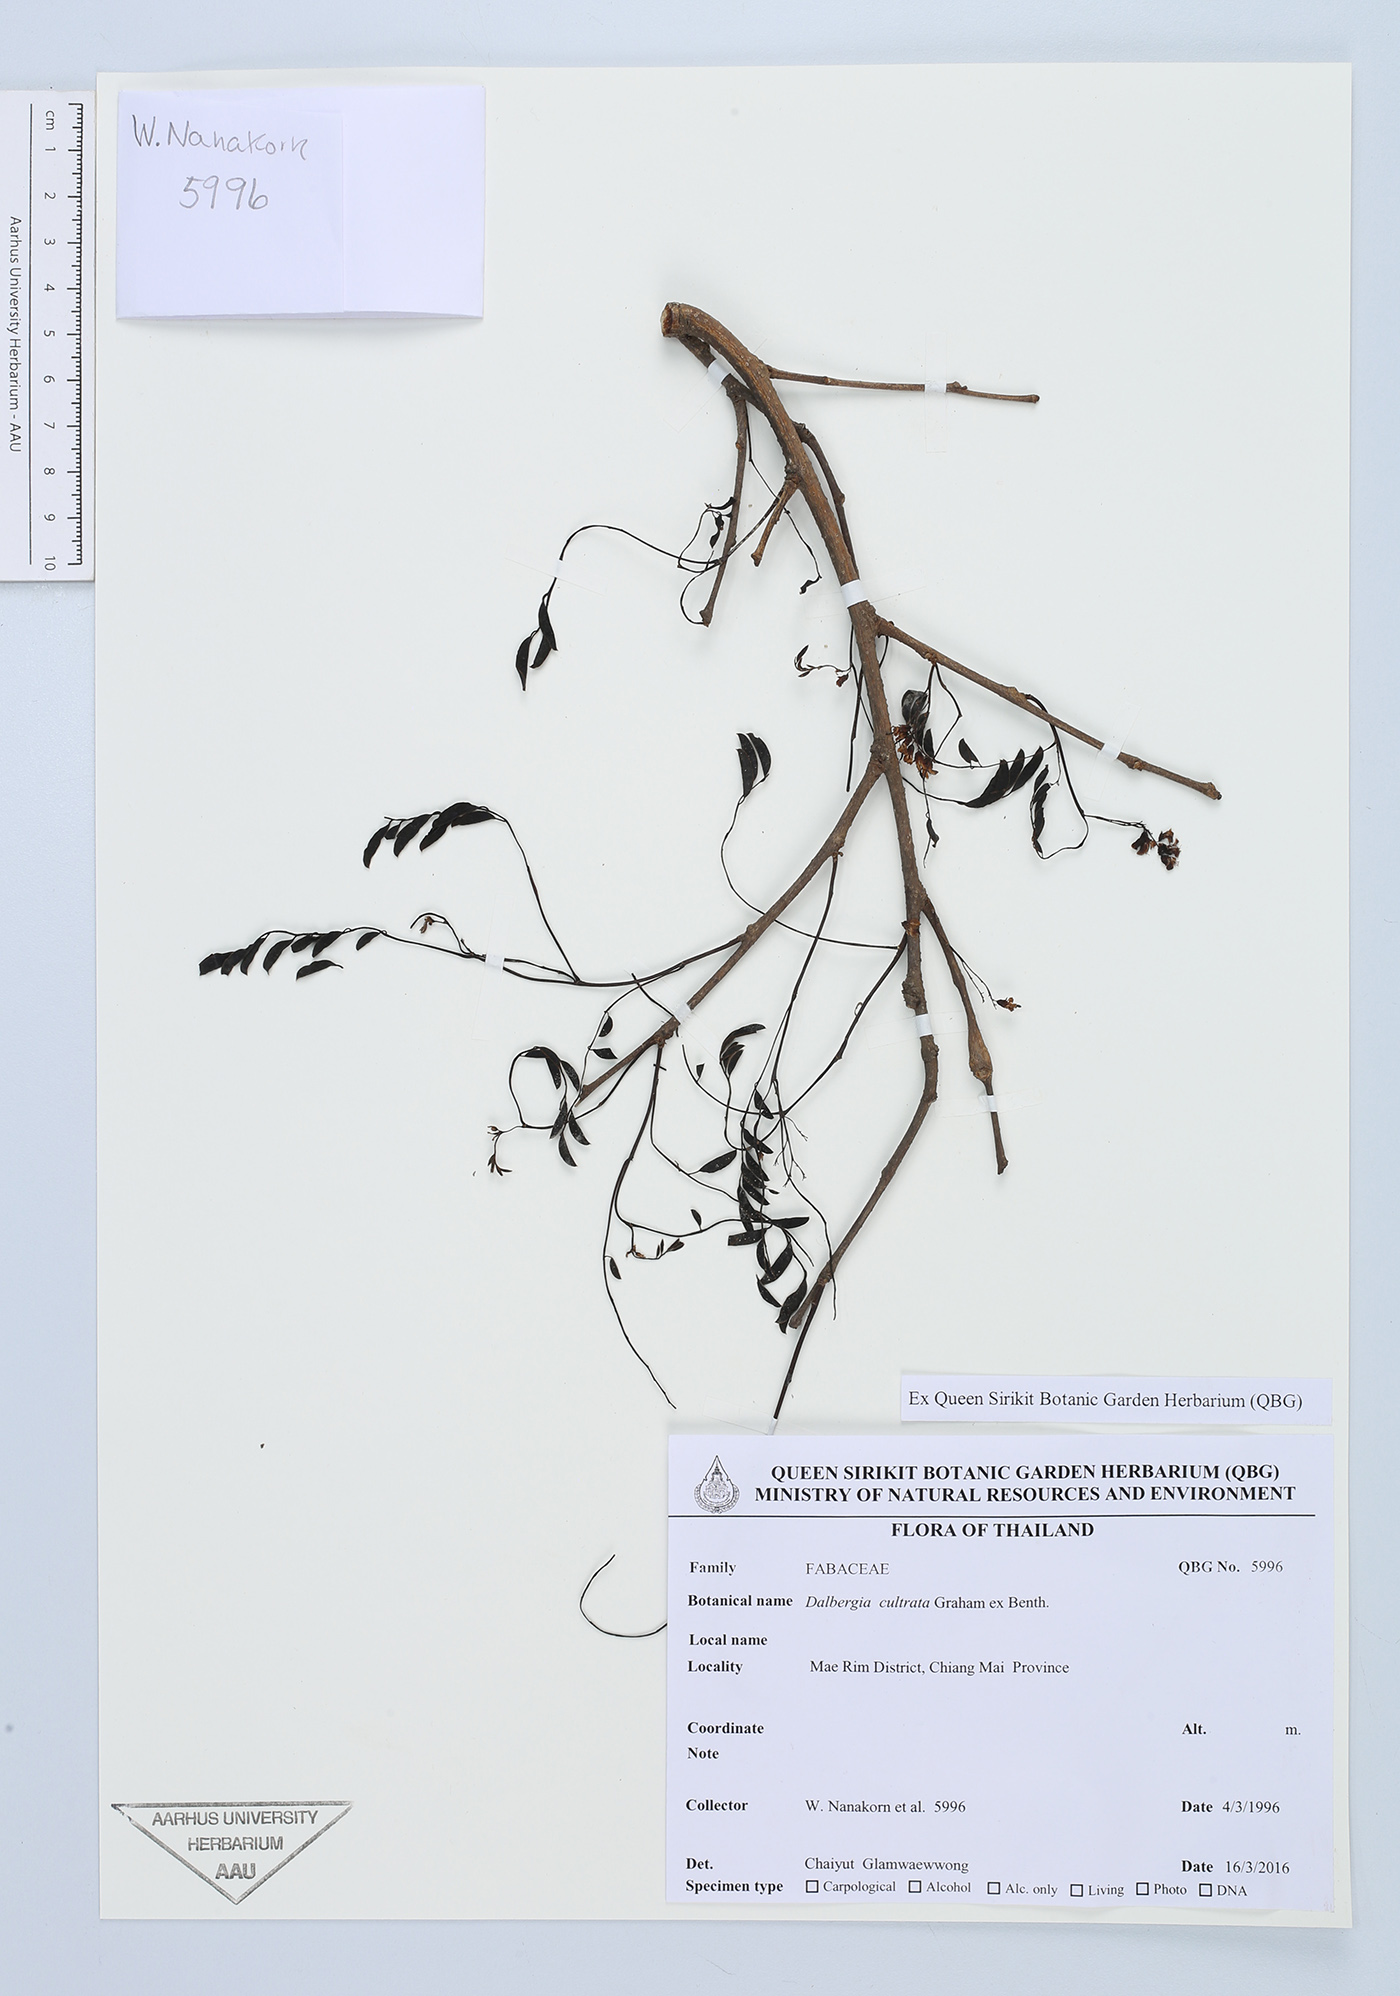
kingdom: Plantae
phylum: Tracheophyta
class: Magnoliopsida
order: Fabales
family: Fabaceae
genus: Dalbergia
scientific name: Dalbergia cultrata
